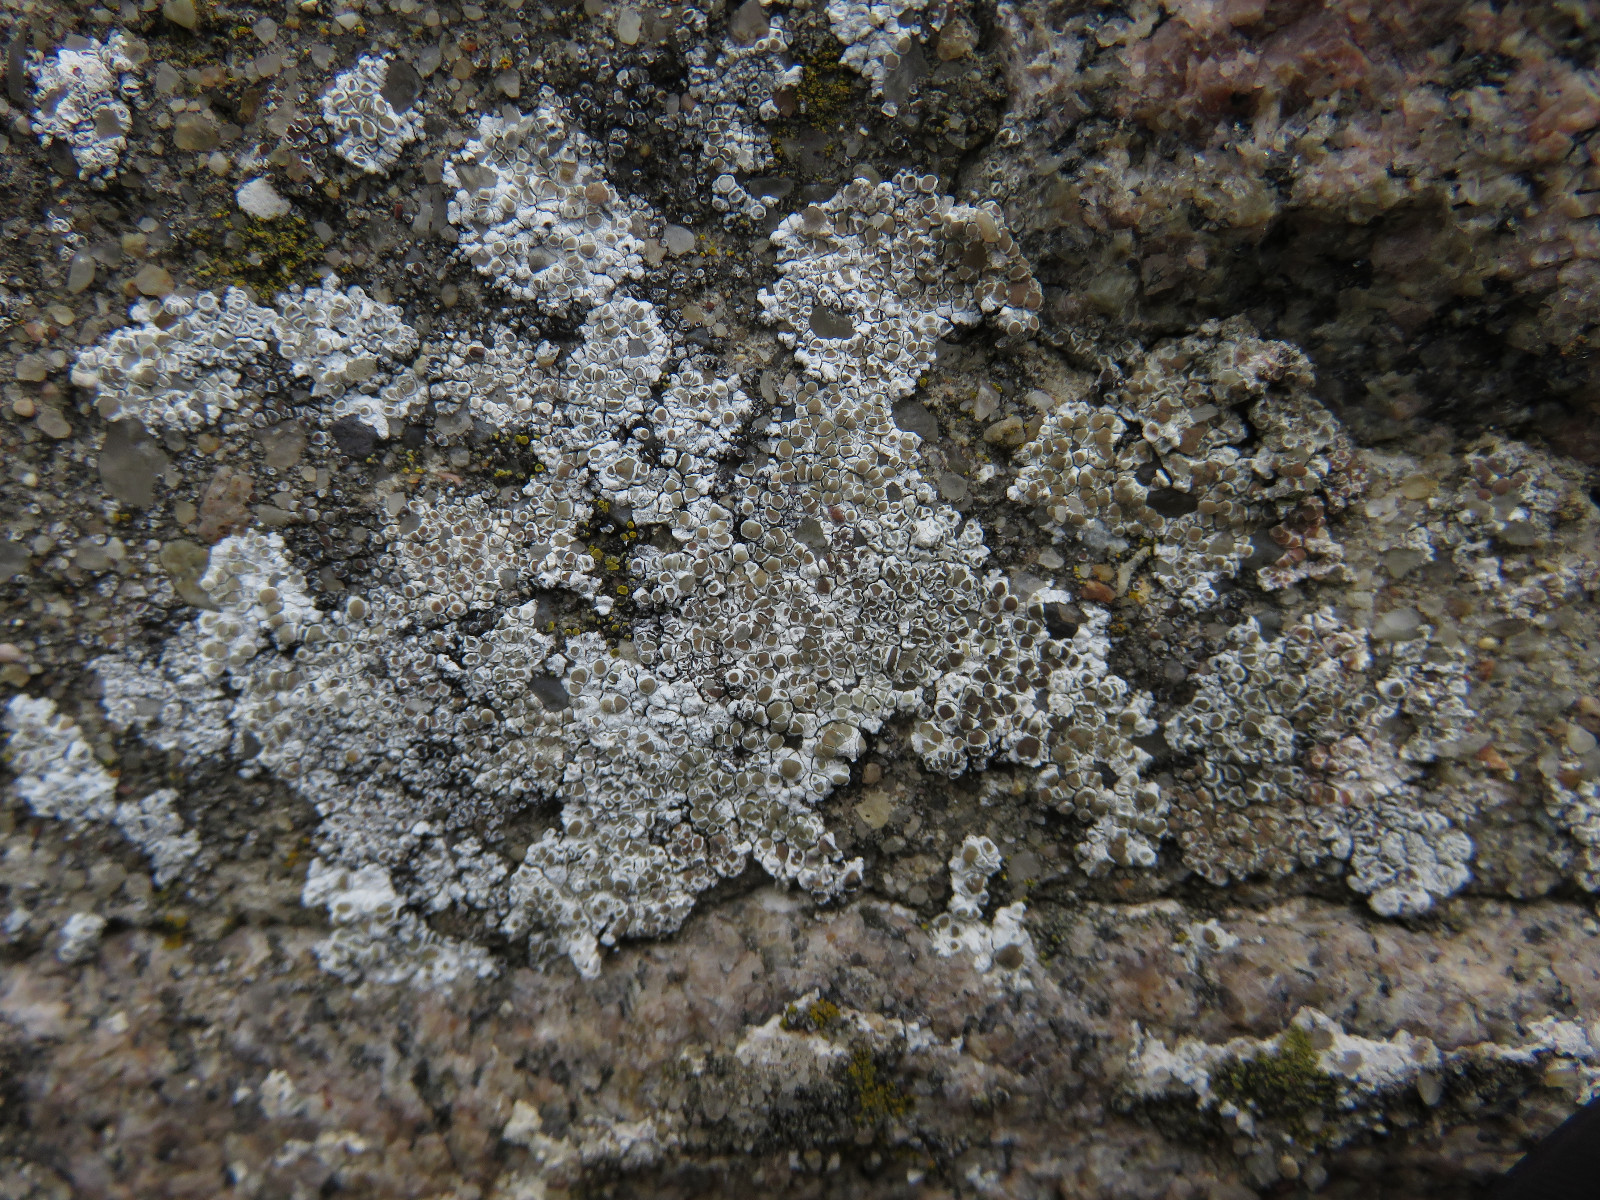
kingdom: Fungi
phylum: Ascomycota
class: Lecanoromycetes
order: Lecanorales
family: Lecanoraceae
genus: Polyozosia
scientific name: Polyozosia albescens
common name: cement-kantskivelav
